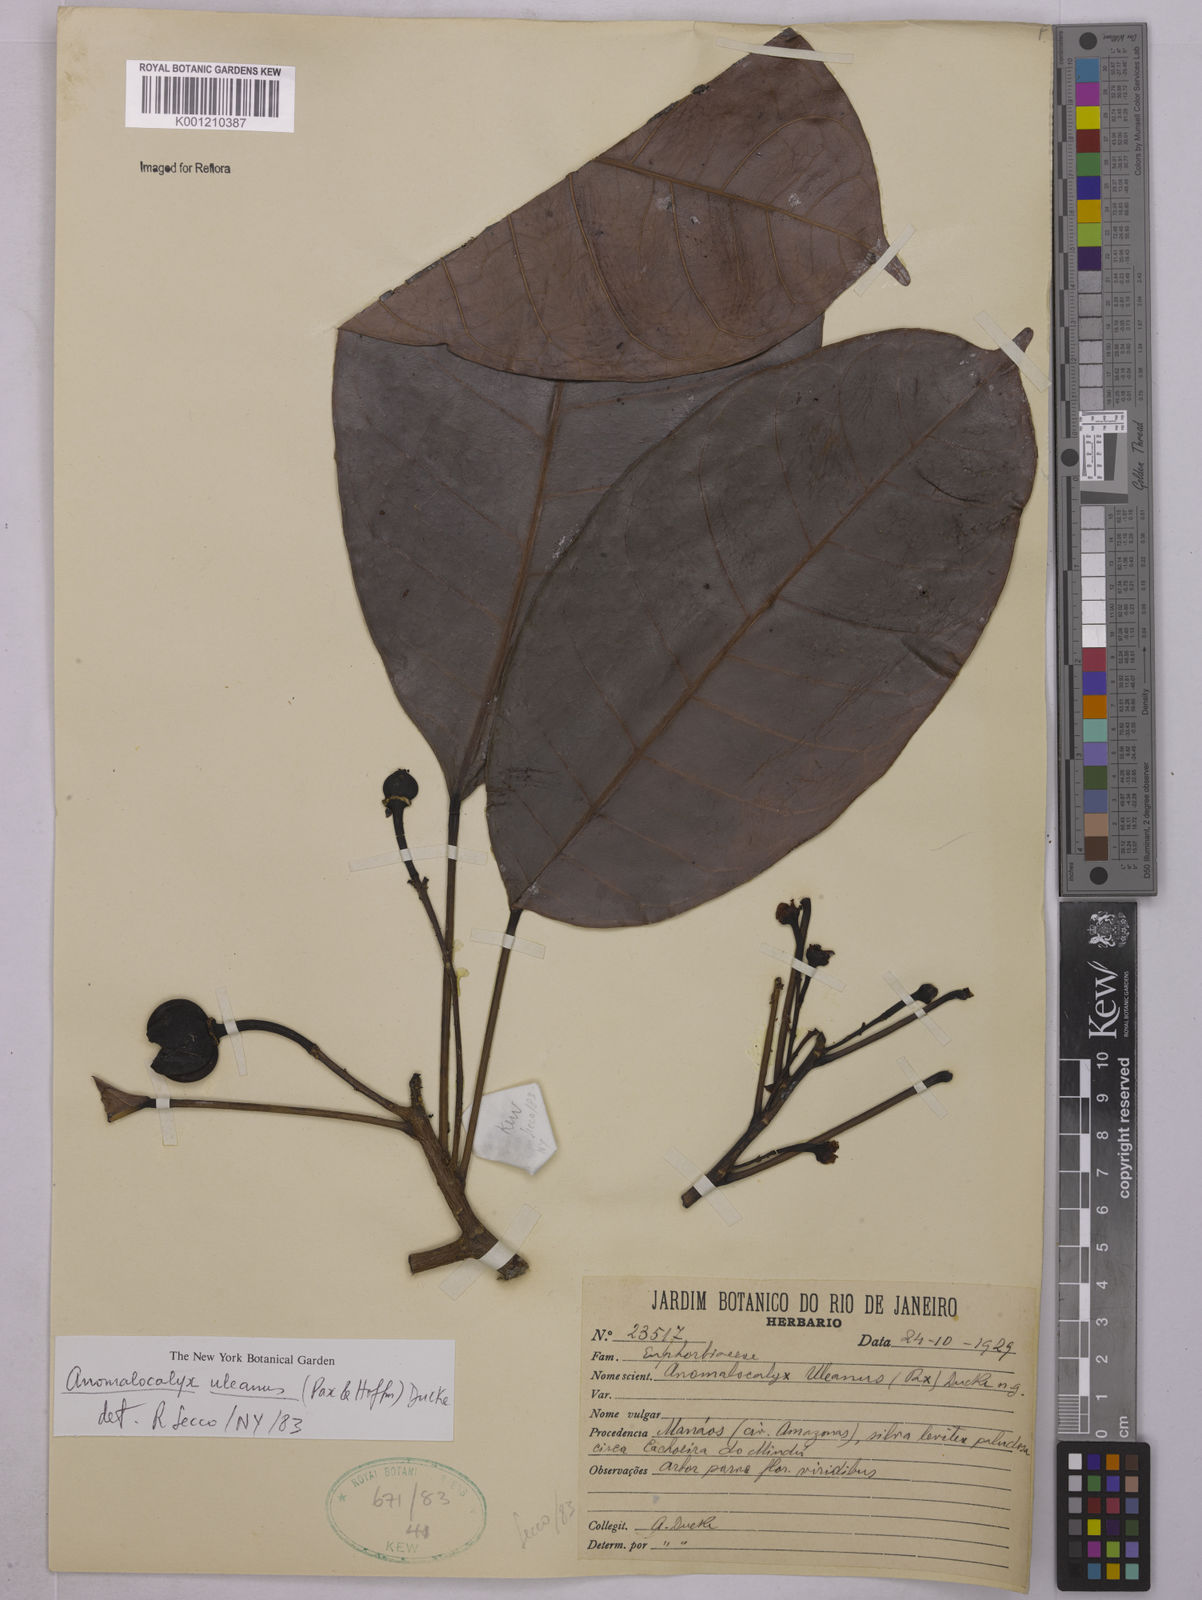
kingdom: Plantae
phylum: Tracheophyta
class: Magnoliopsida
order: Malpighiales
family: Euphorbiaceae
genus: Dodecastigma
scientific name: Dodecastigma uleanum
